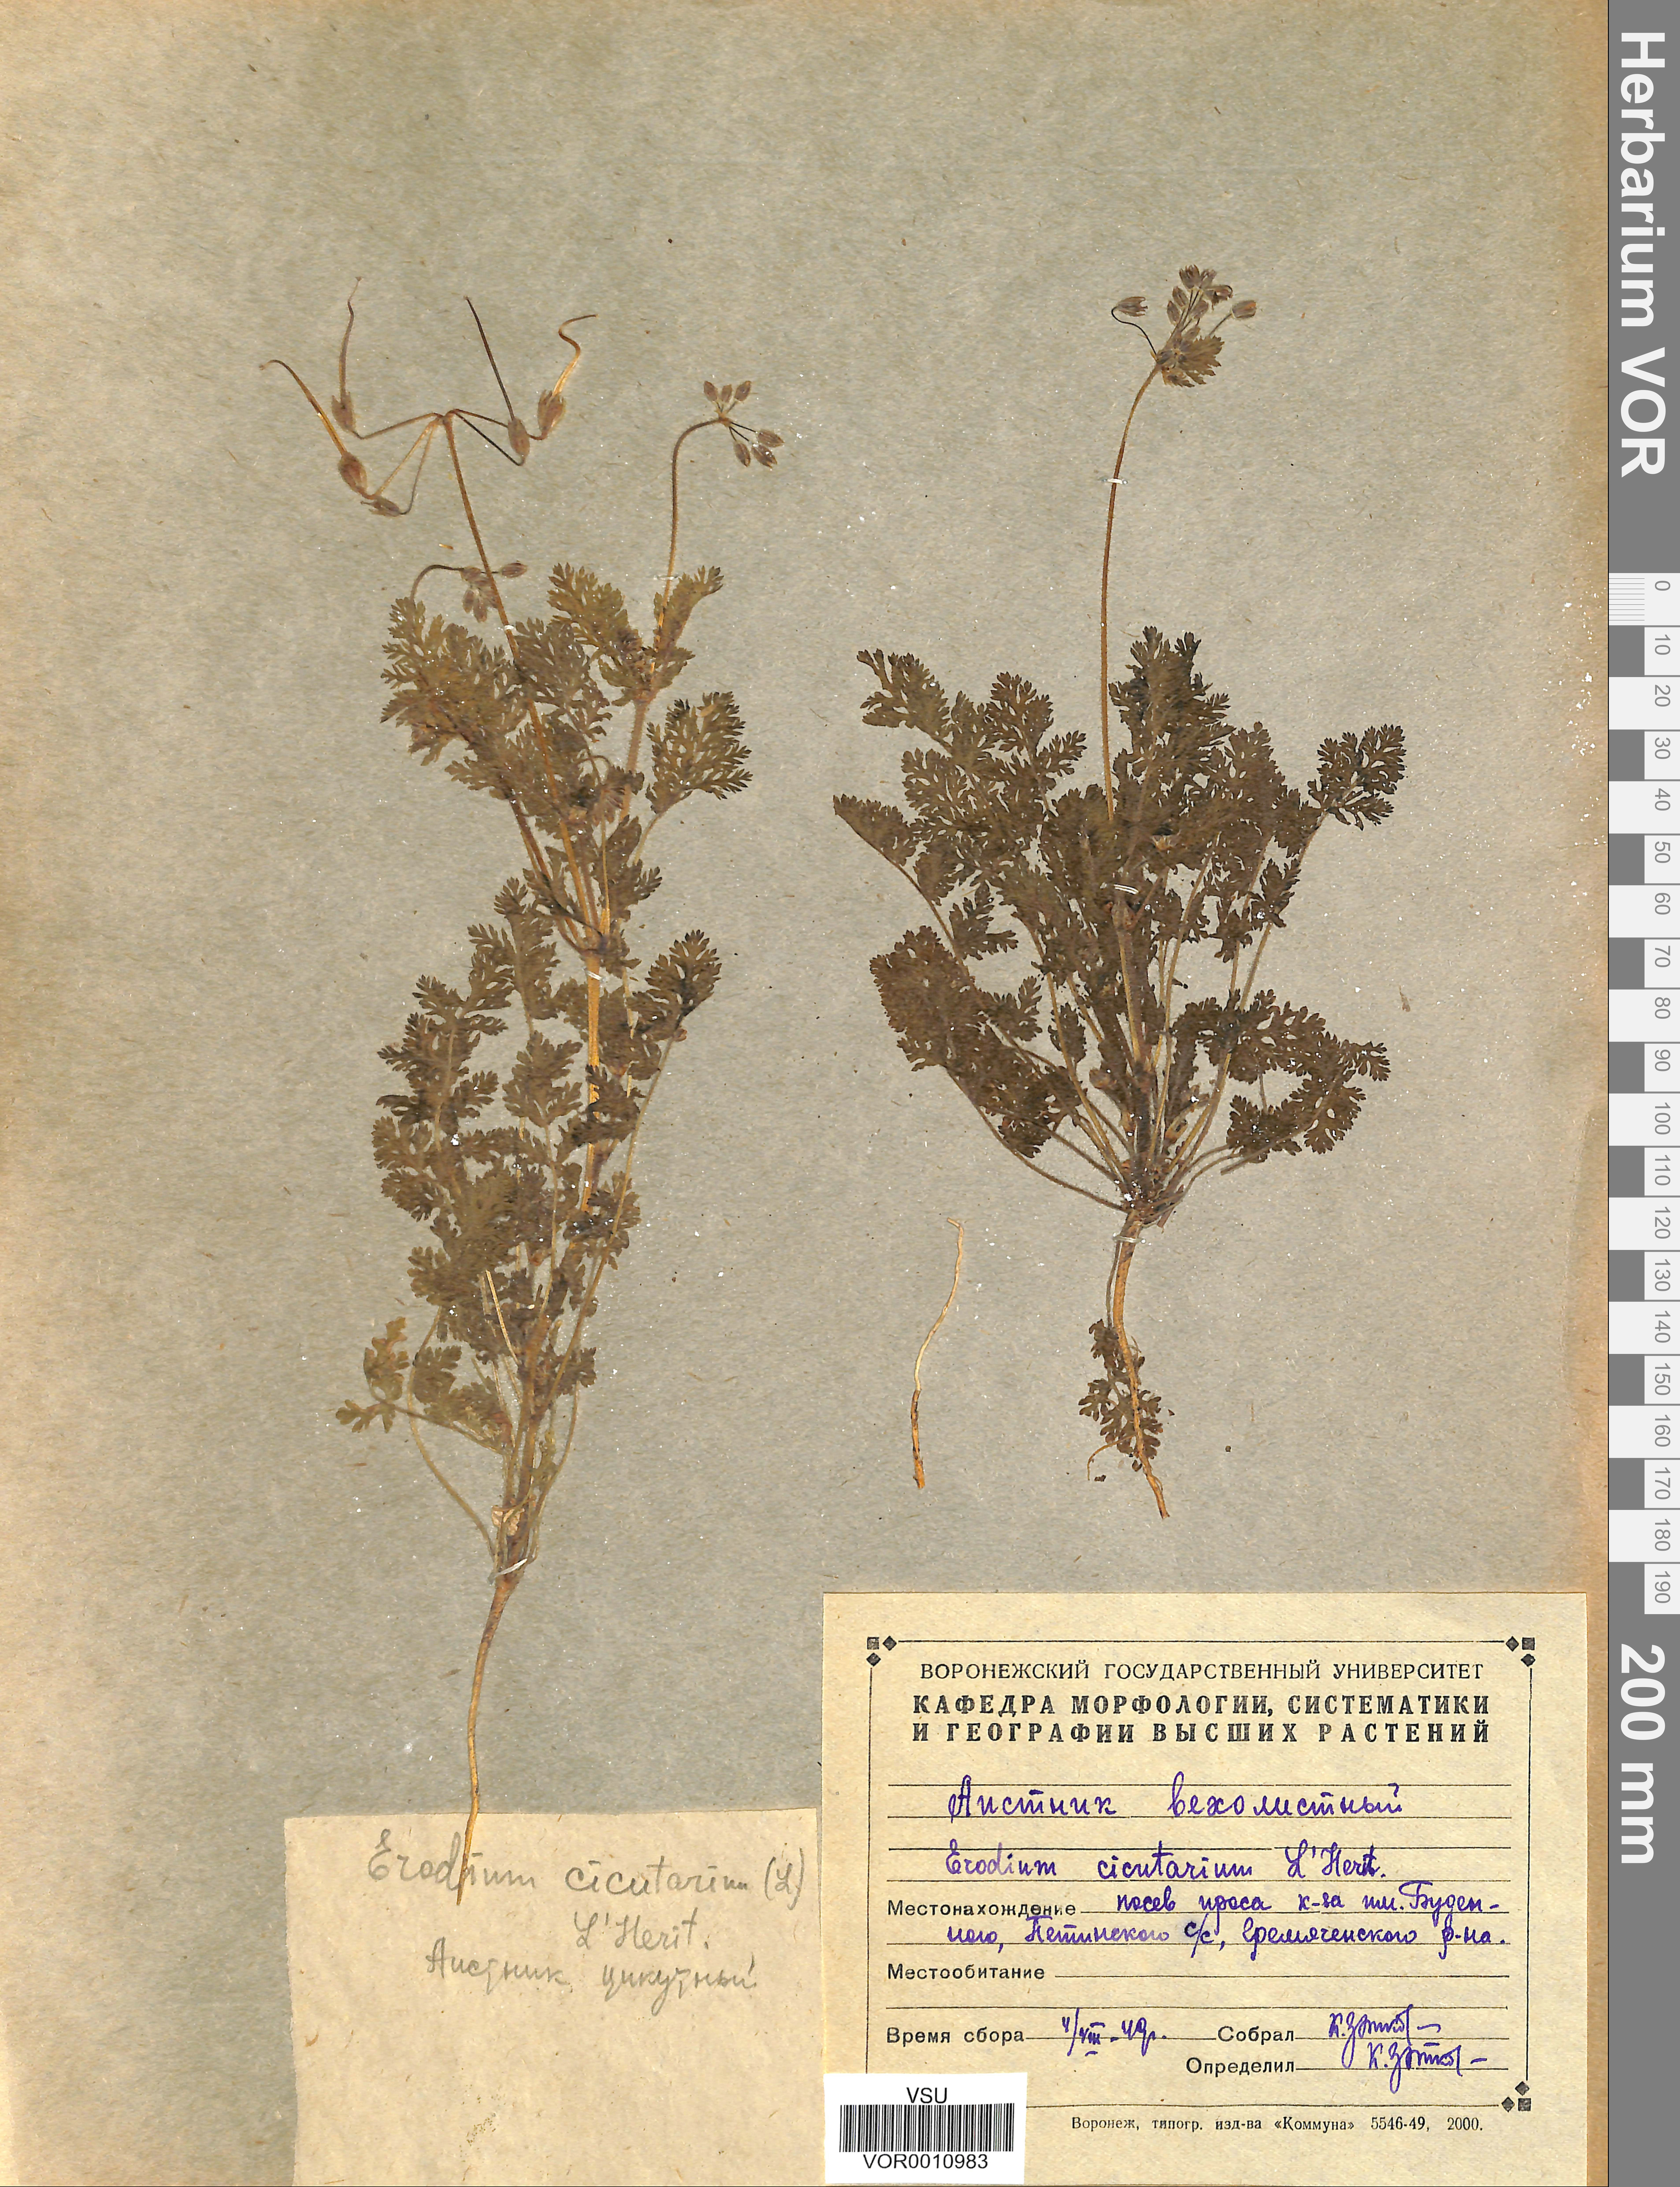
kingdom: Plantae
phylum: Tracheophyta
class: Magnoliopsida
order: Geraniales
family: Geraniaceae
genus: Erodium
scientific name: Erodium cicutarium
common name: Common stork's-bill
